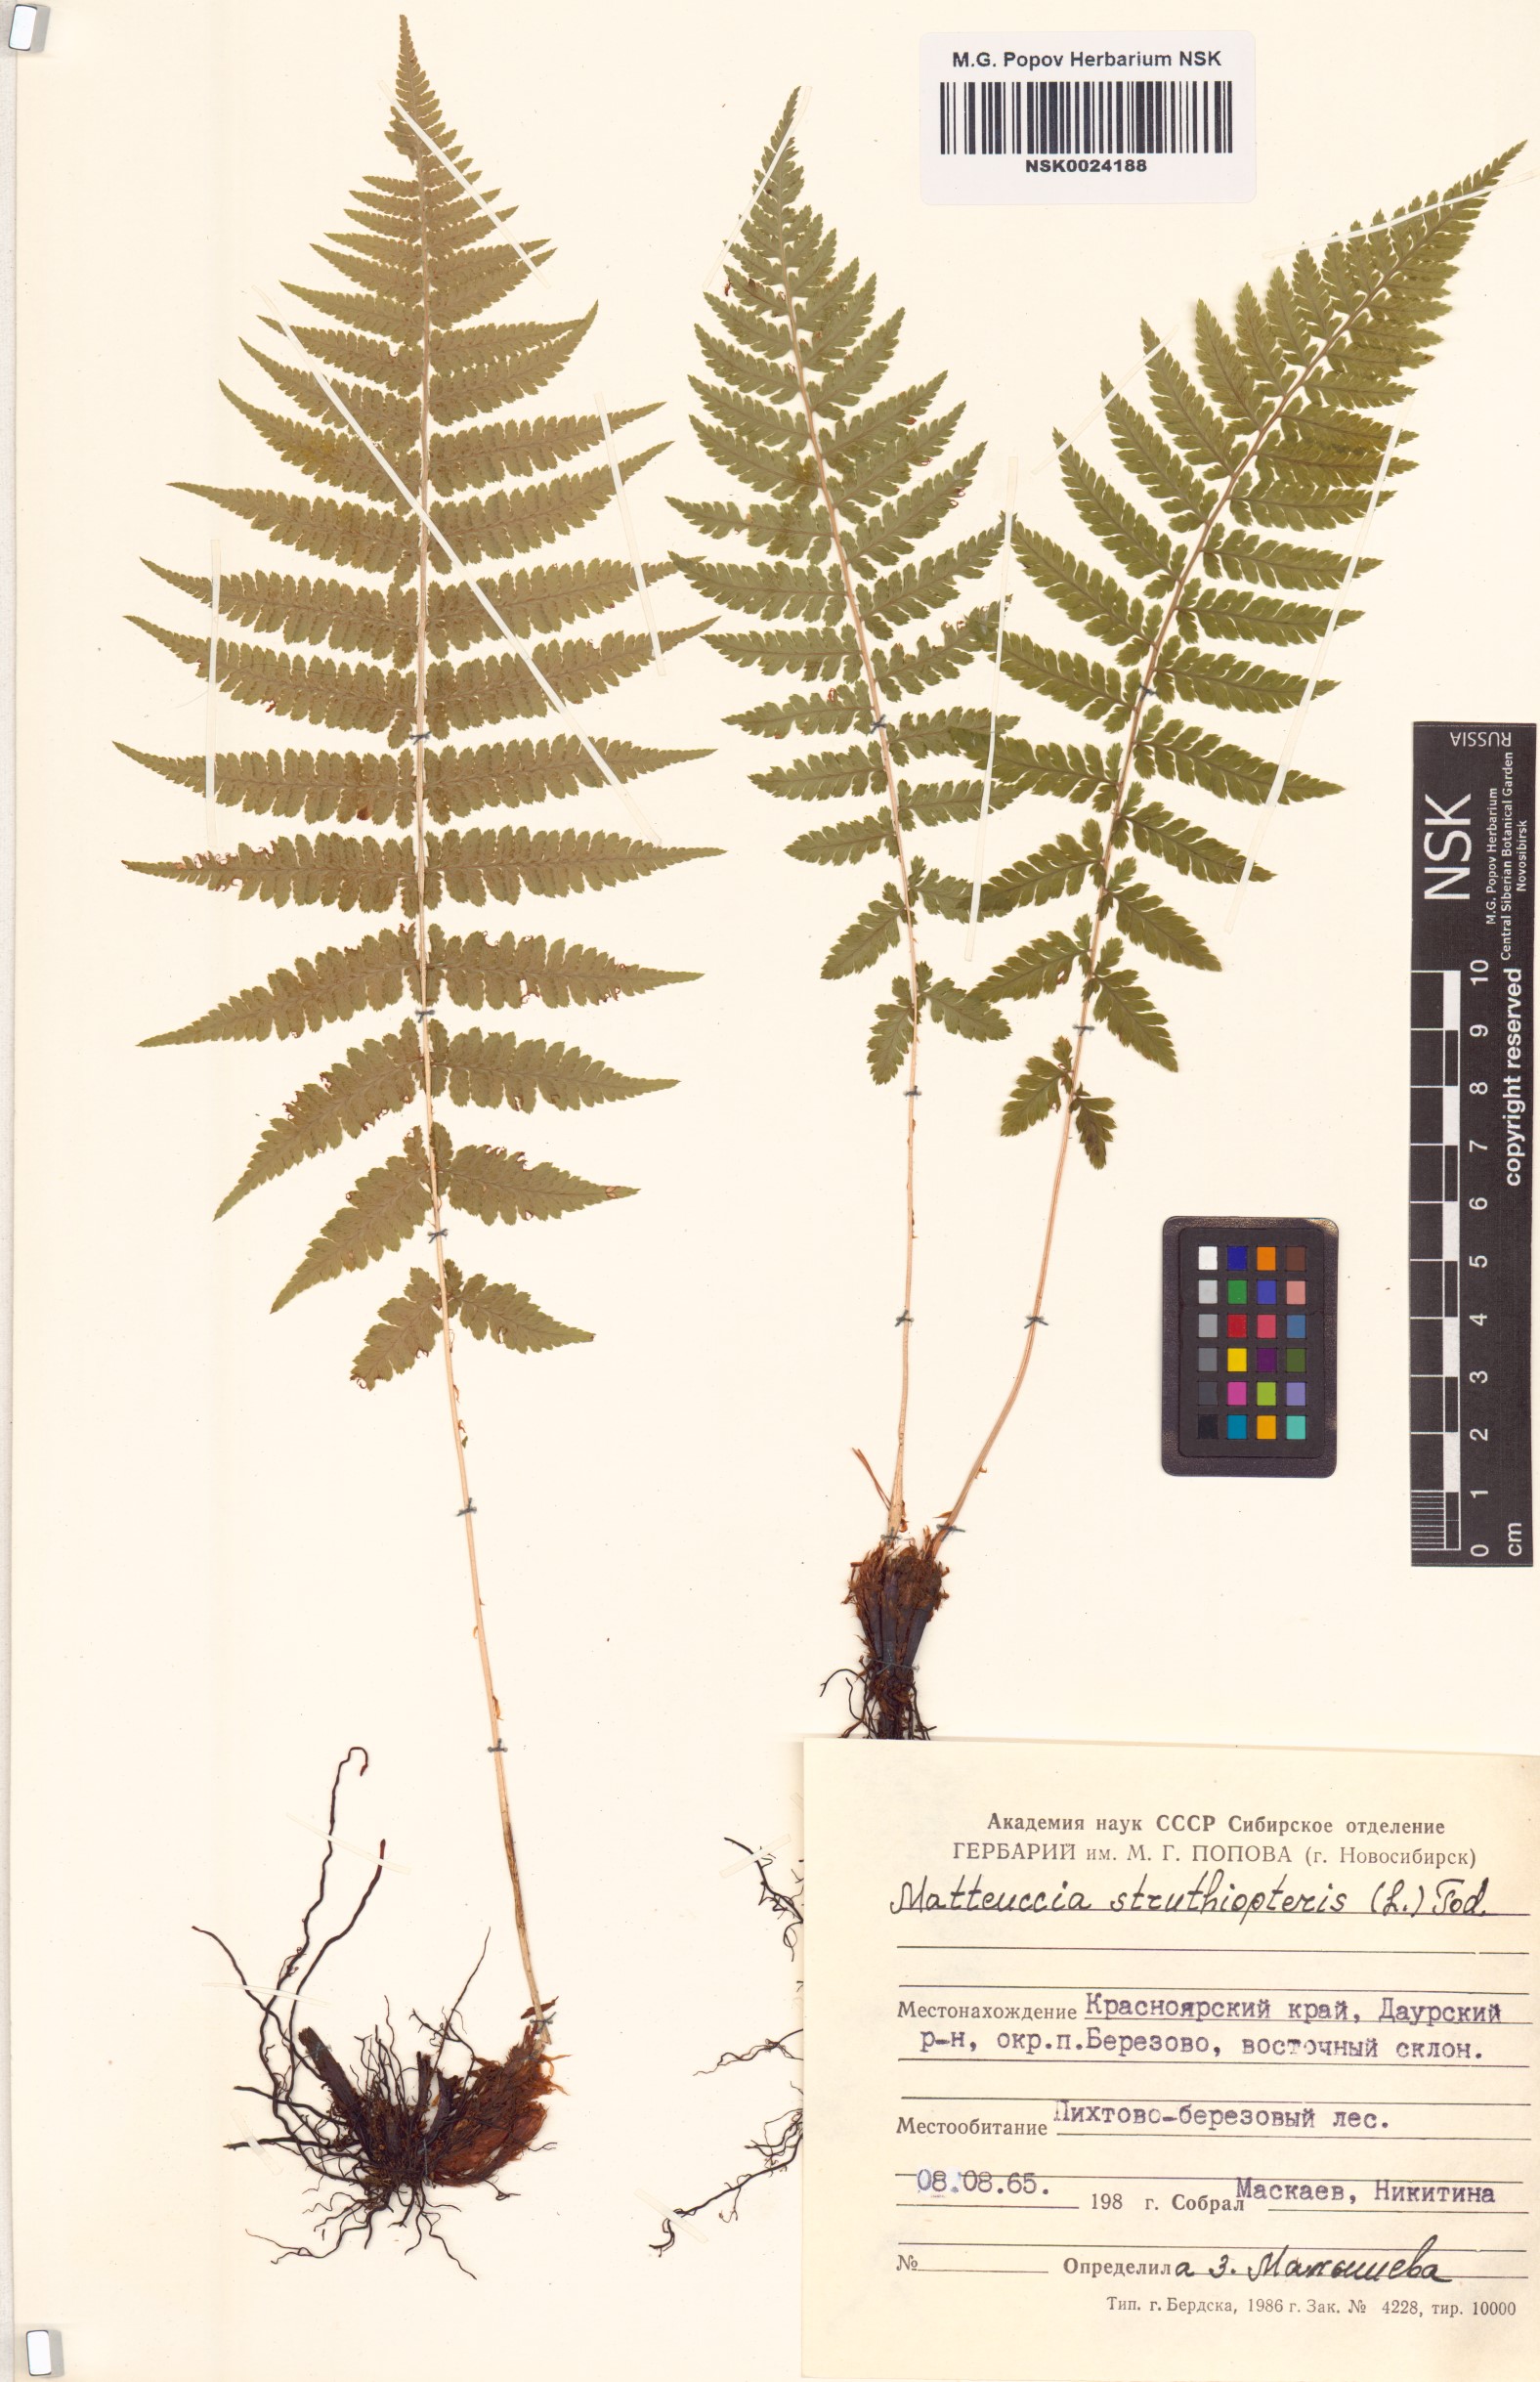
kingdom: Plantae
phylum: Tracheophyta
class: Polypodiopsida
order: Polypodiales
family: Onocleaceae
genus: Matteuccia
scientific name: Matteuccia struthiopteris
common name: Ostrich fern
